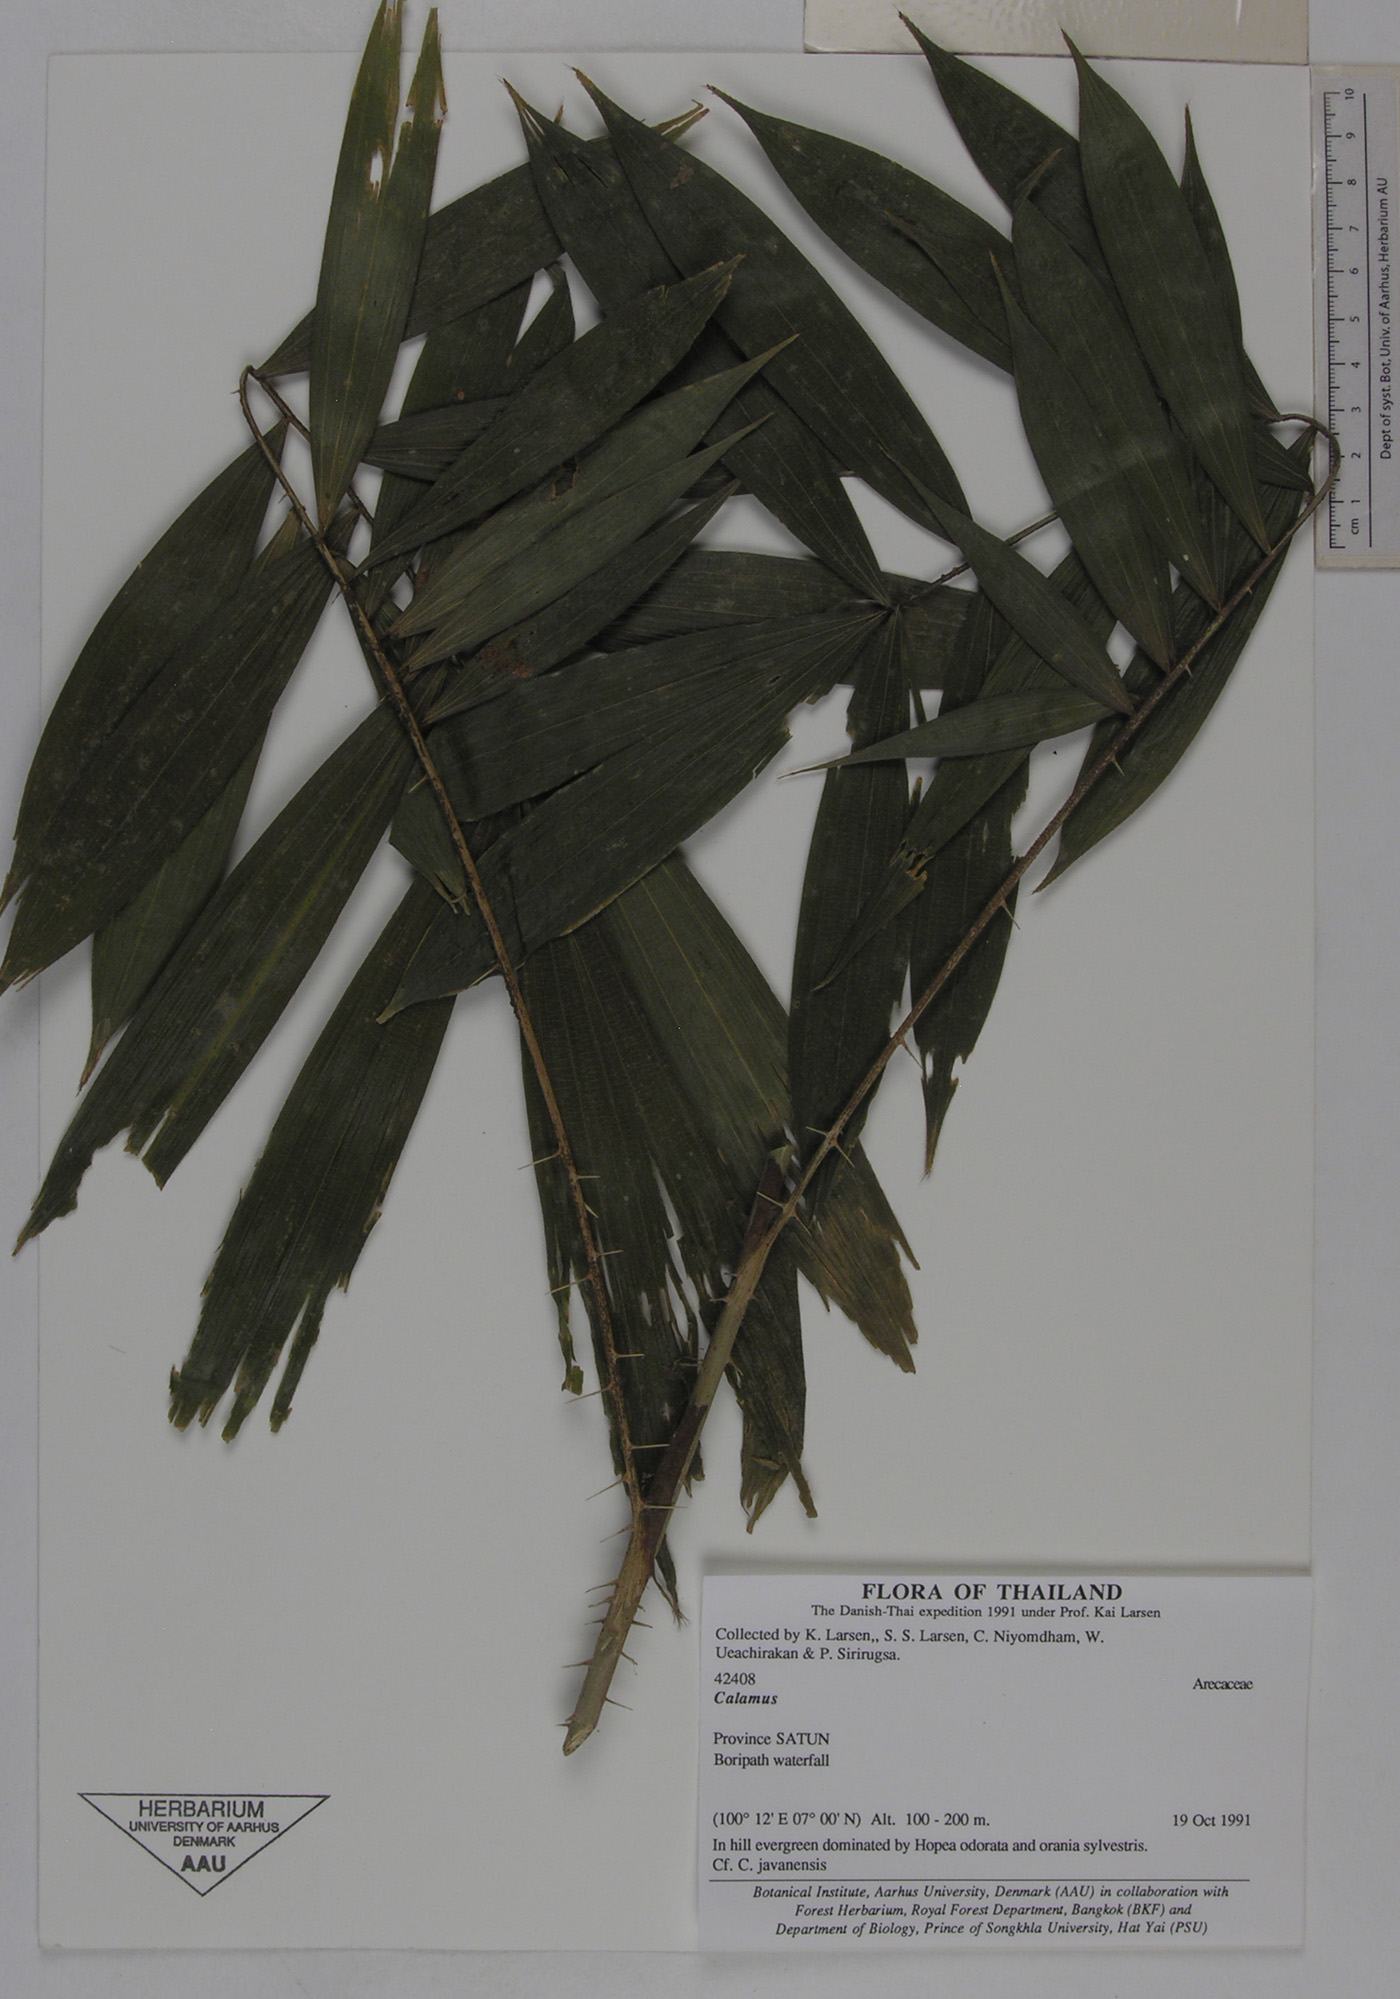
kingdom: Plantae
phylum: Tracheophyta
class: Liliopsida
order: Arecales
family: Arecaceae
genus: Calamus
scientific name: Calamus javensis
